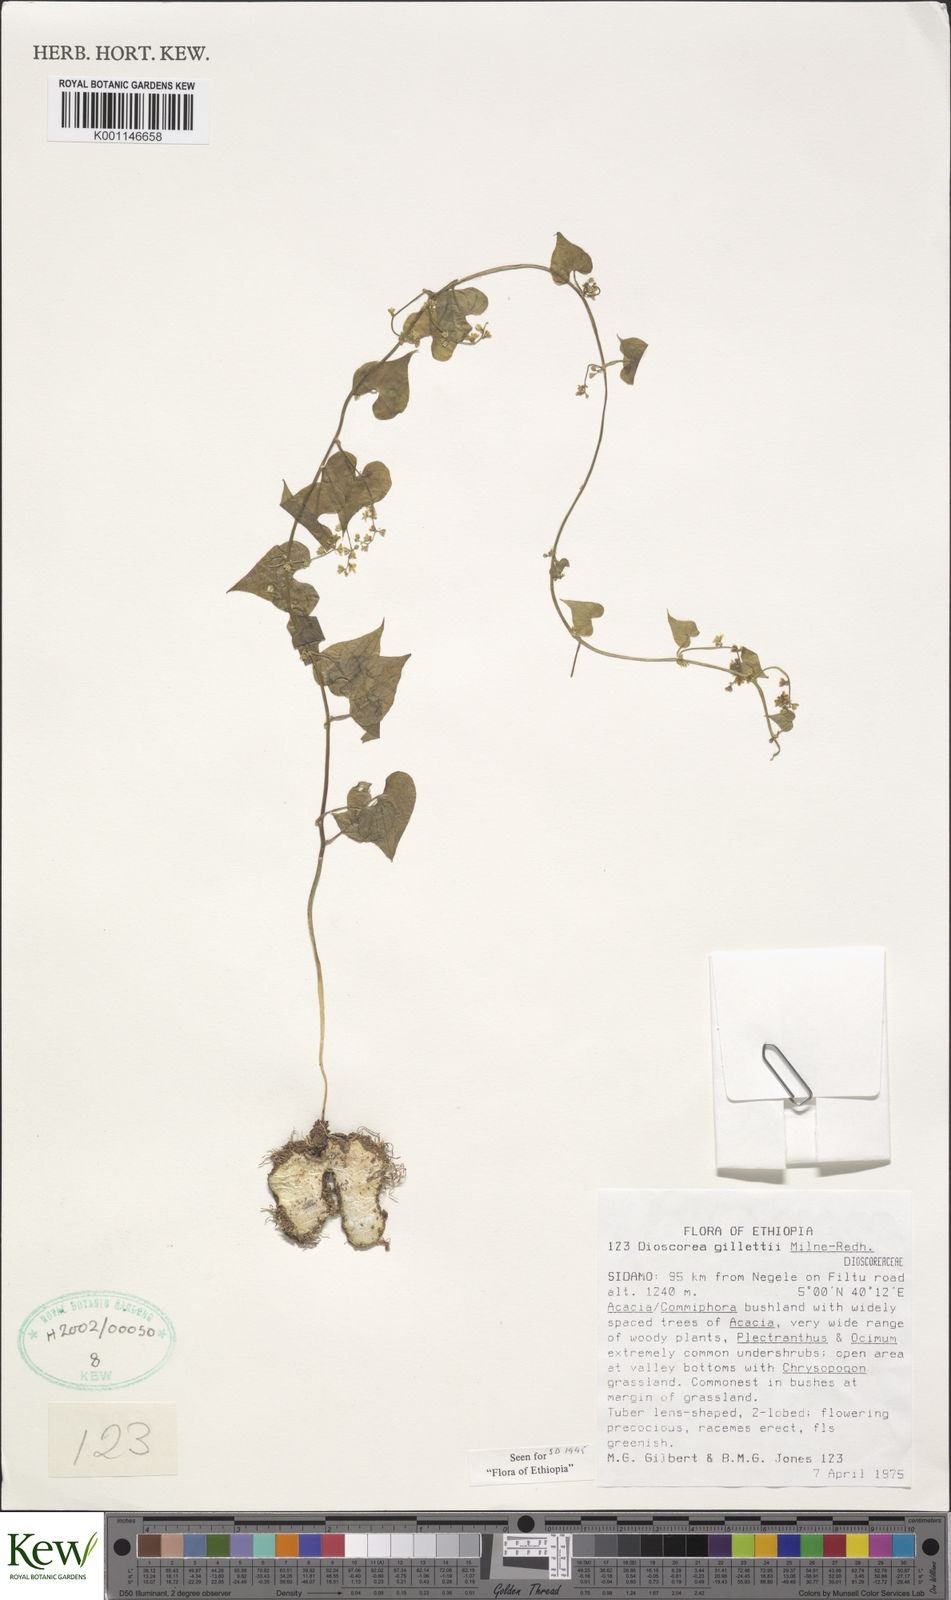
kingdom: Plantae
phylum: Tracheophyta
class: Liliopsida
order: Dioscoreales
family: Dioscoreaceae
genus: Dioscorea
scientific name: Dioscorea gillettii
